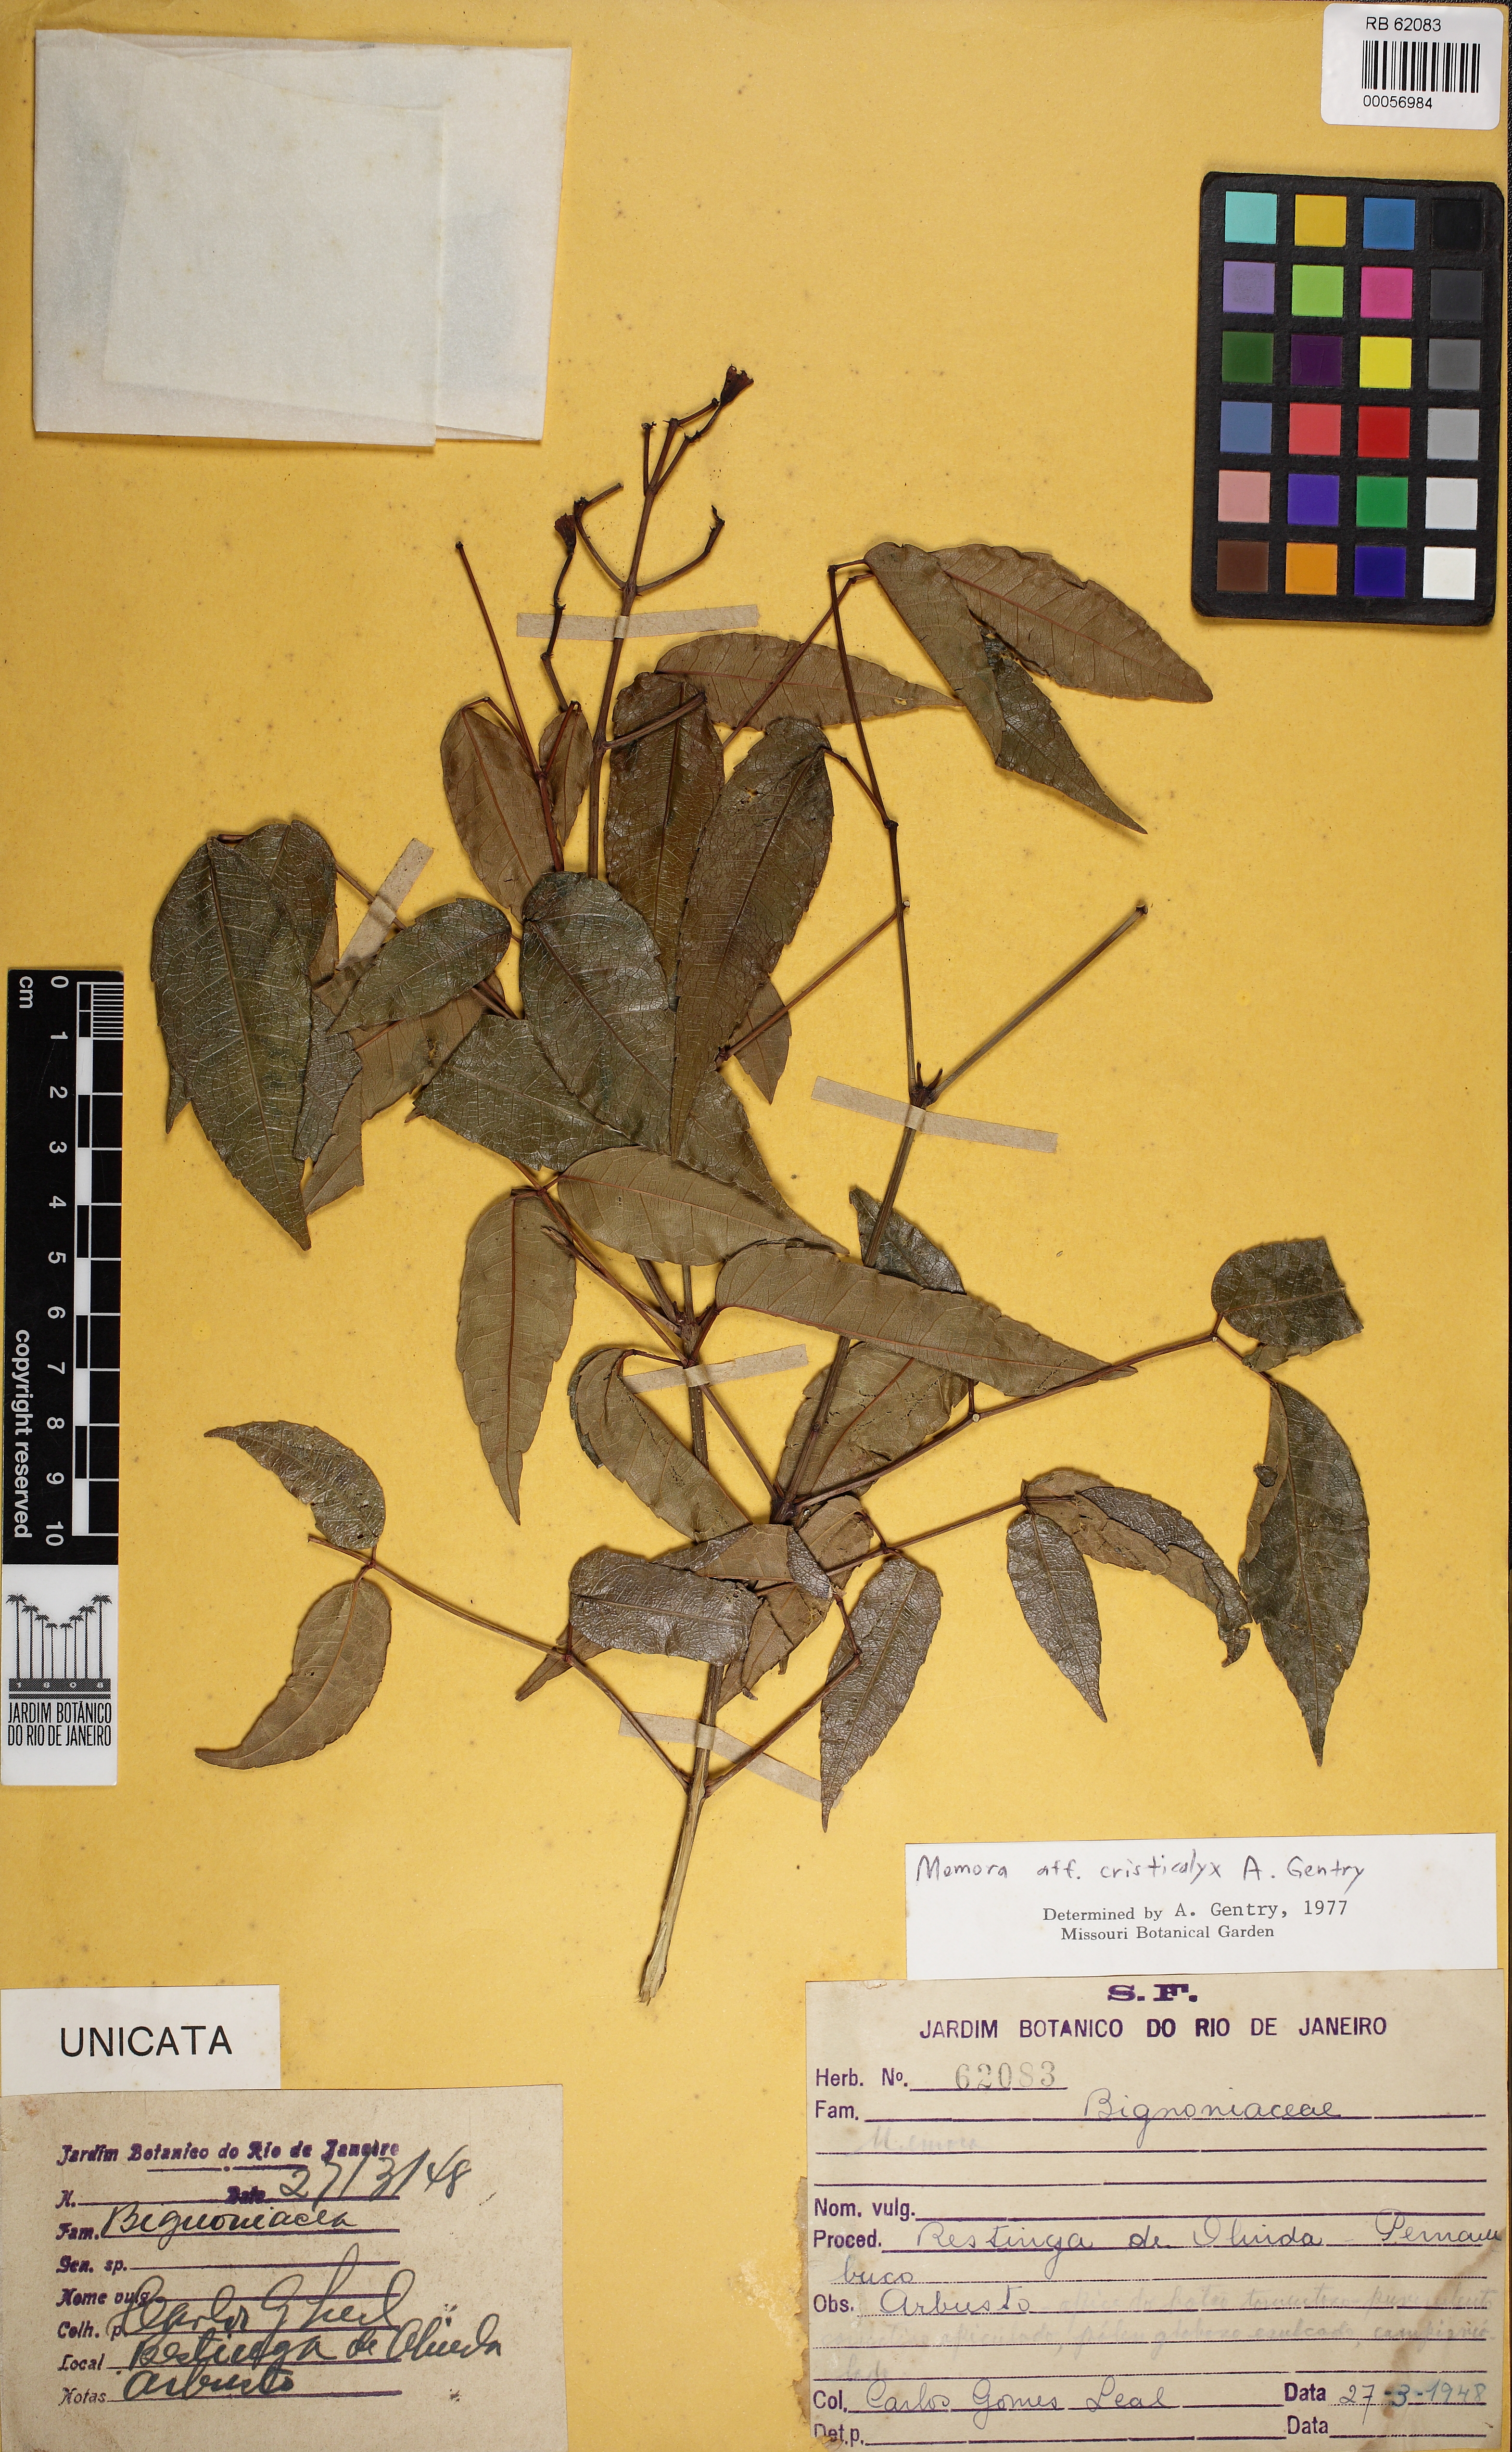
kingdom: Plantae
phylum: Tracheophyta
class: Magnoliopsida
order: Lamiales
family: Bignoniaceae
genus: Adenocalymma
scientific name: Adenocalymma imperatoris-maximilianii
